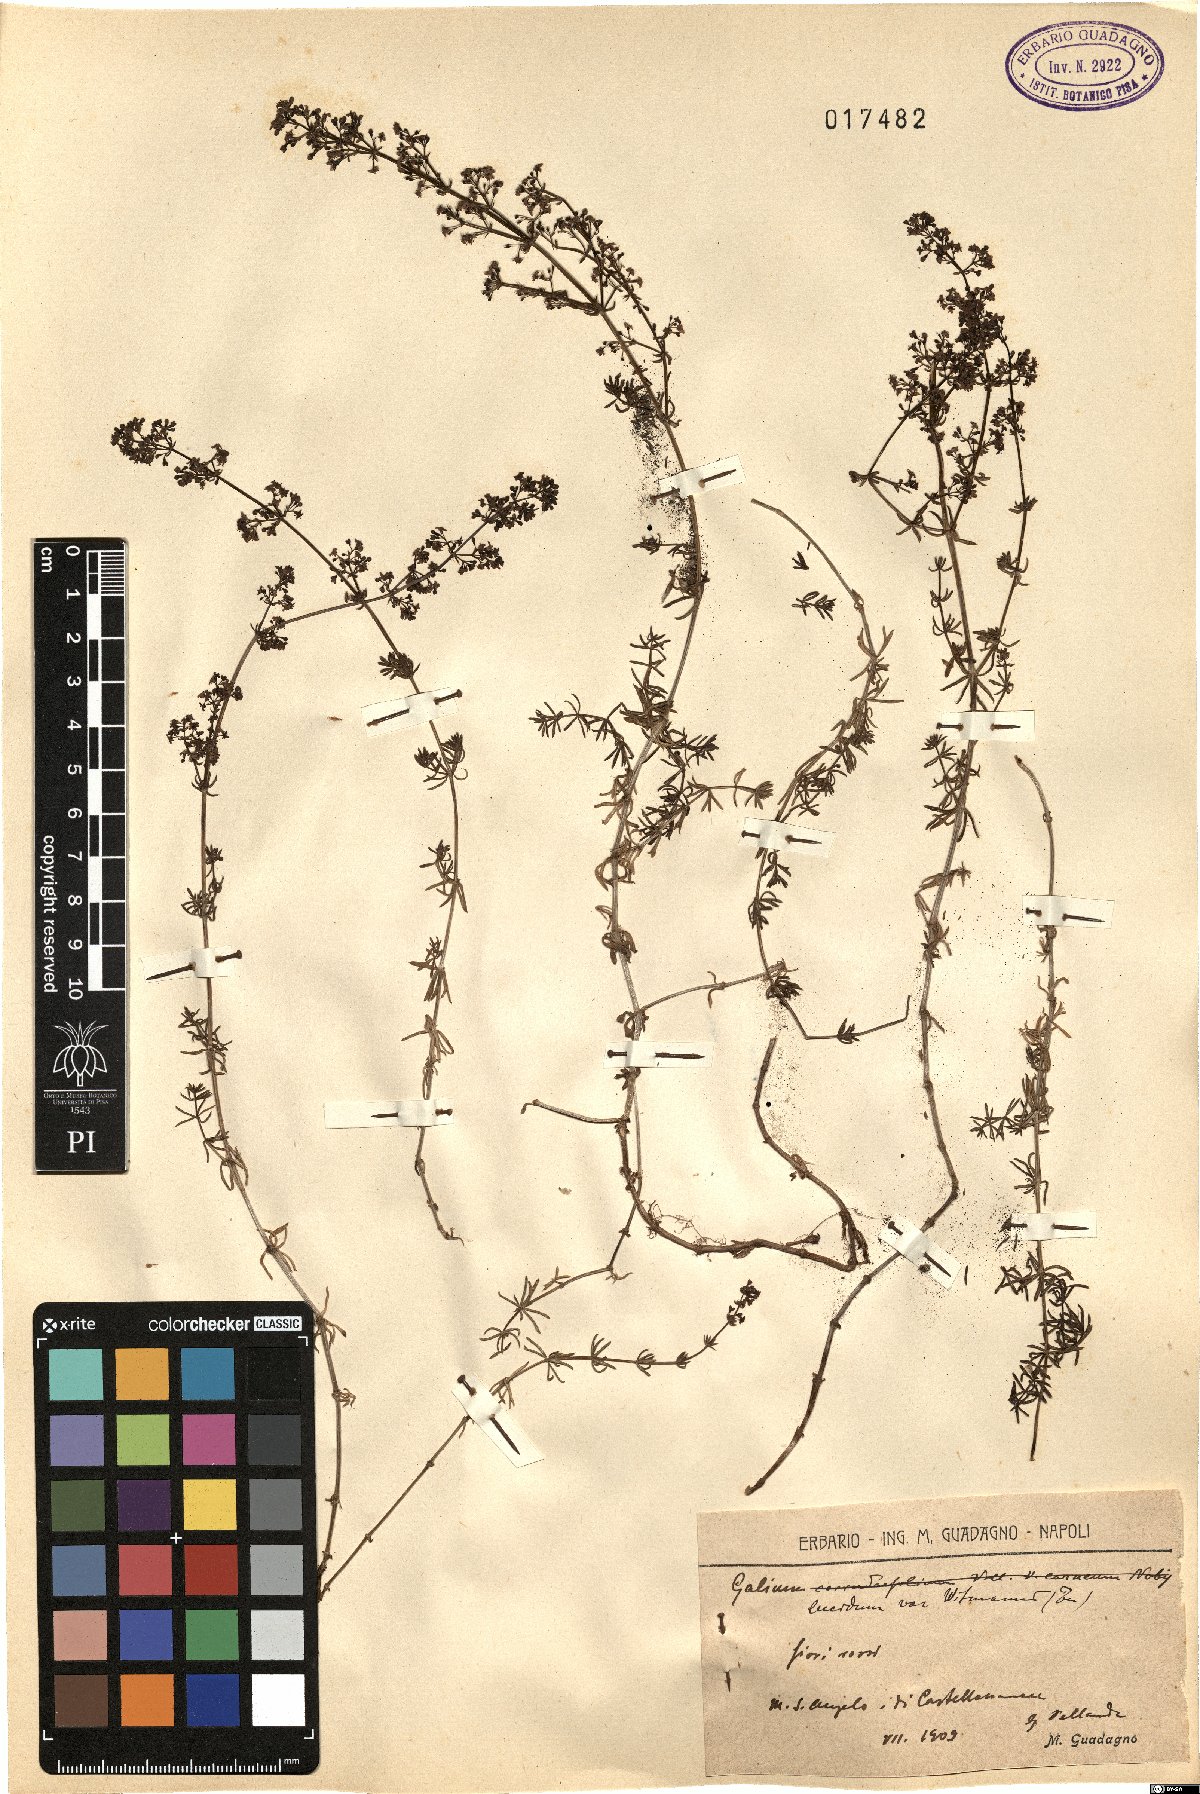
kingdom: Plantae
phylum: Tracheophyta
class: Magnoliopsida
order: Gentianales
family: Rubiaceae
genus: Galium
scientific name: Galium lucidum
